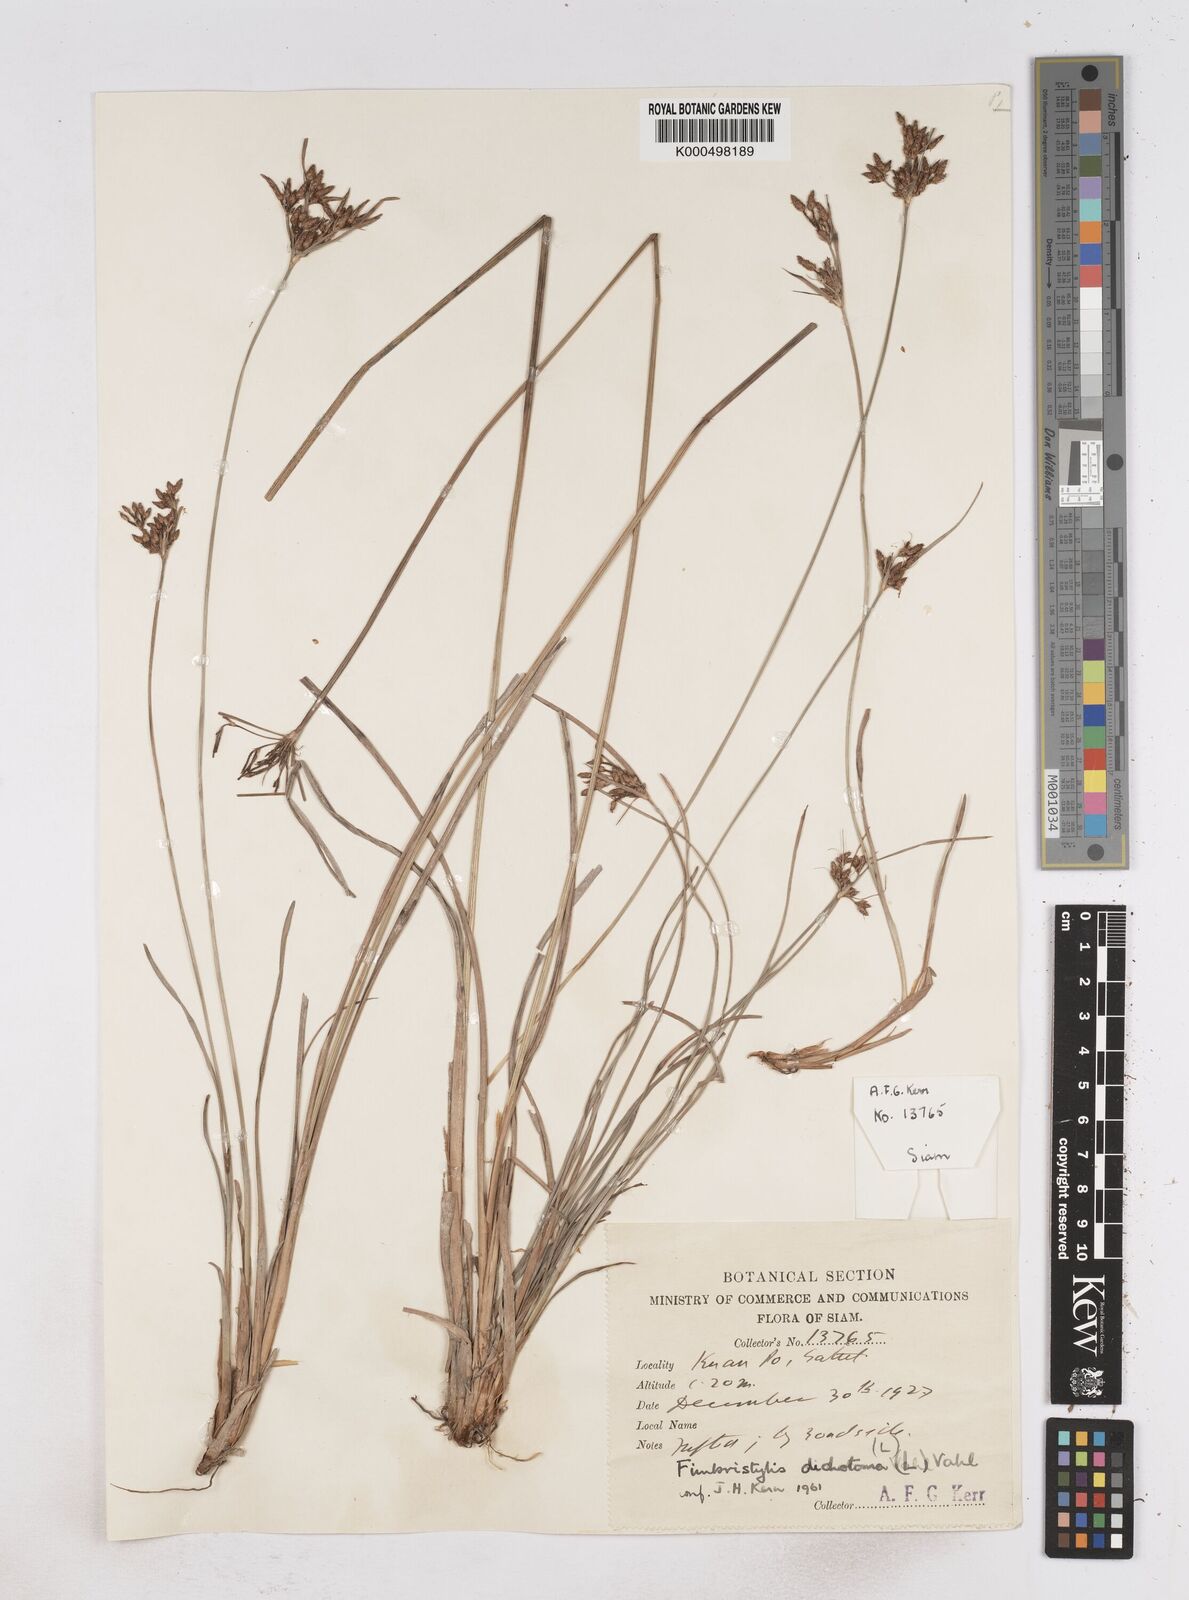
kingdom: Plantae
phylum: Tracheophyta
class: Liliopsida
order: Poales
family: Cyperaceae
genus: Fimbristylis
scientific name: Fimbristylis dichotoma
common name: Forked fimbry
